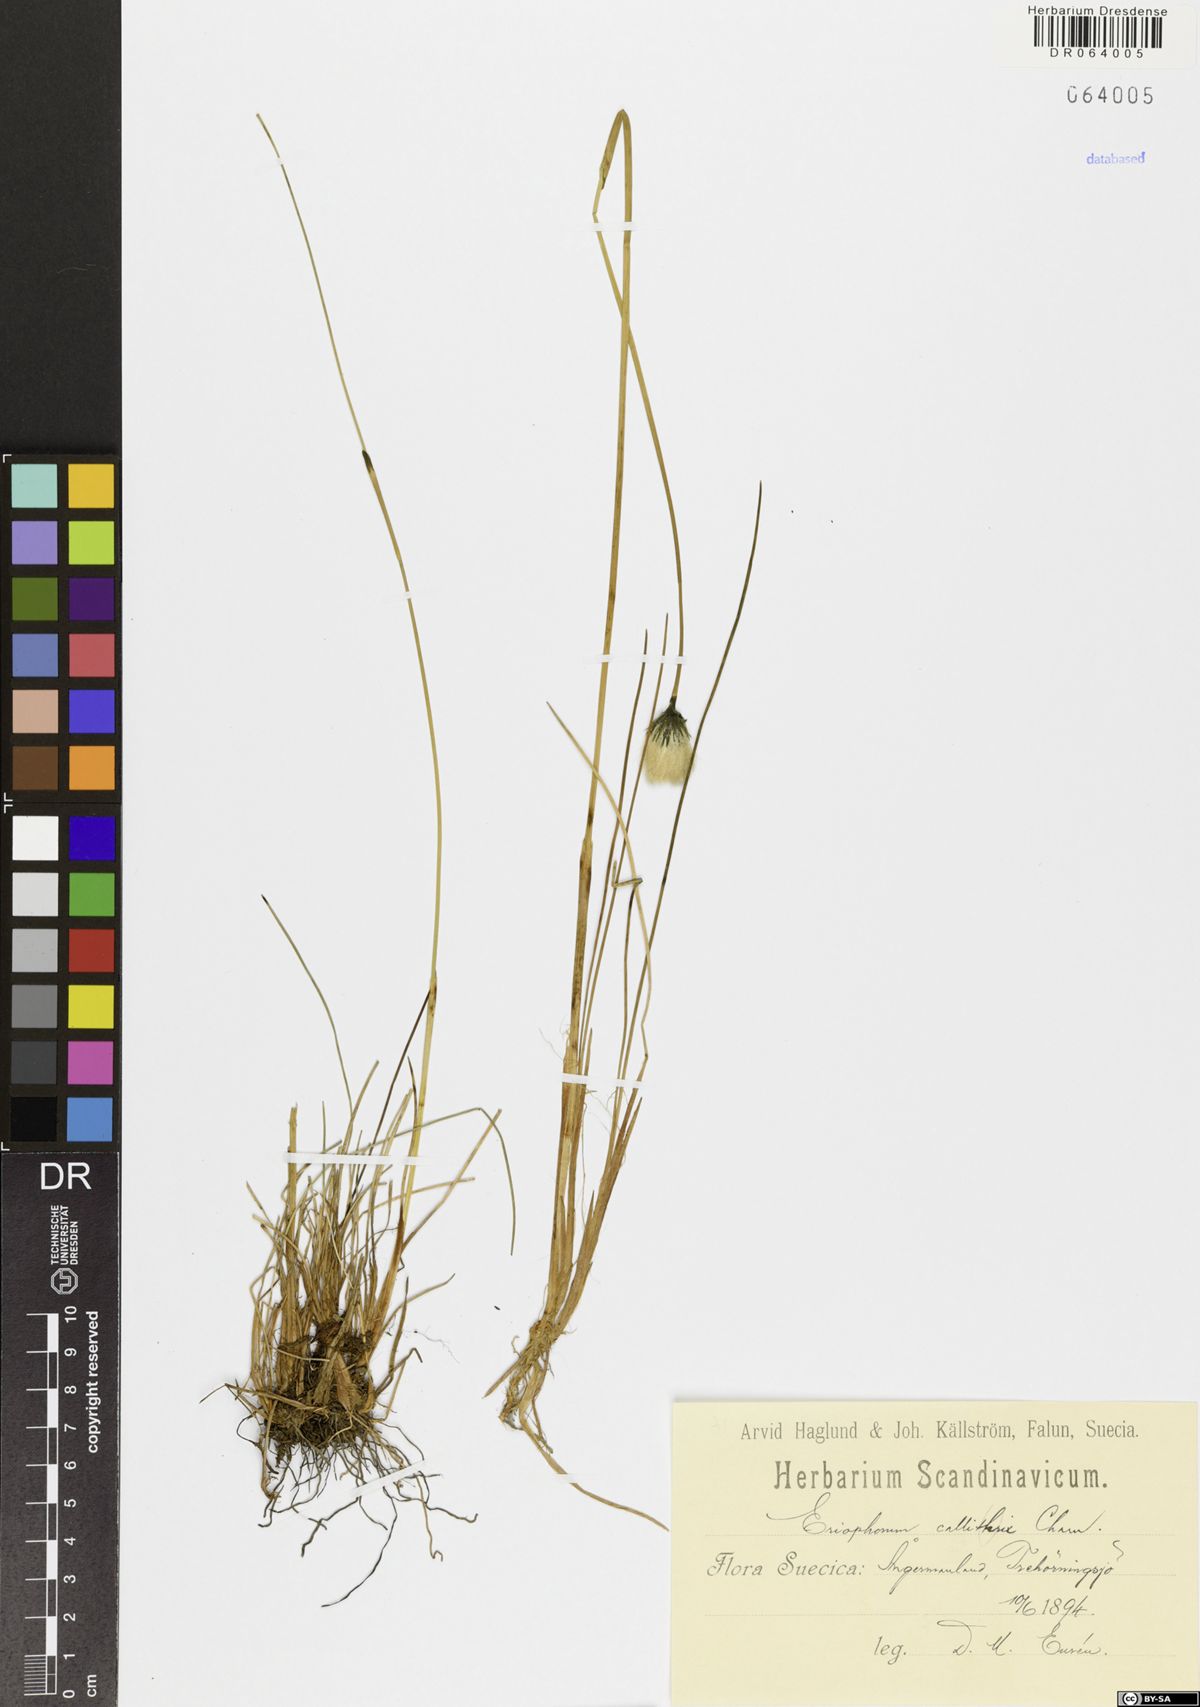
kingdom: Plantae
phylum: Tracheophyta
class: Liliopsida
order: Poales
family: Cyperaceae
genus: Eriophorum
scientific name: Eriophorum callitrix
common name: Arctic cottongrass
